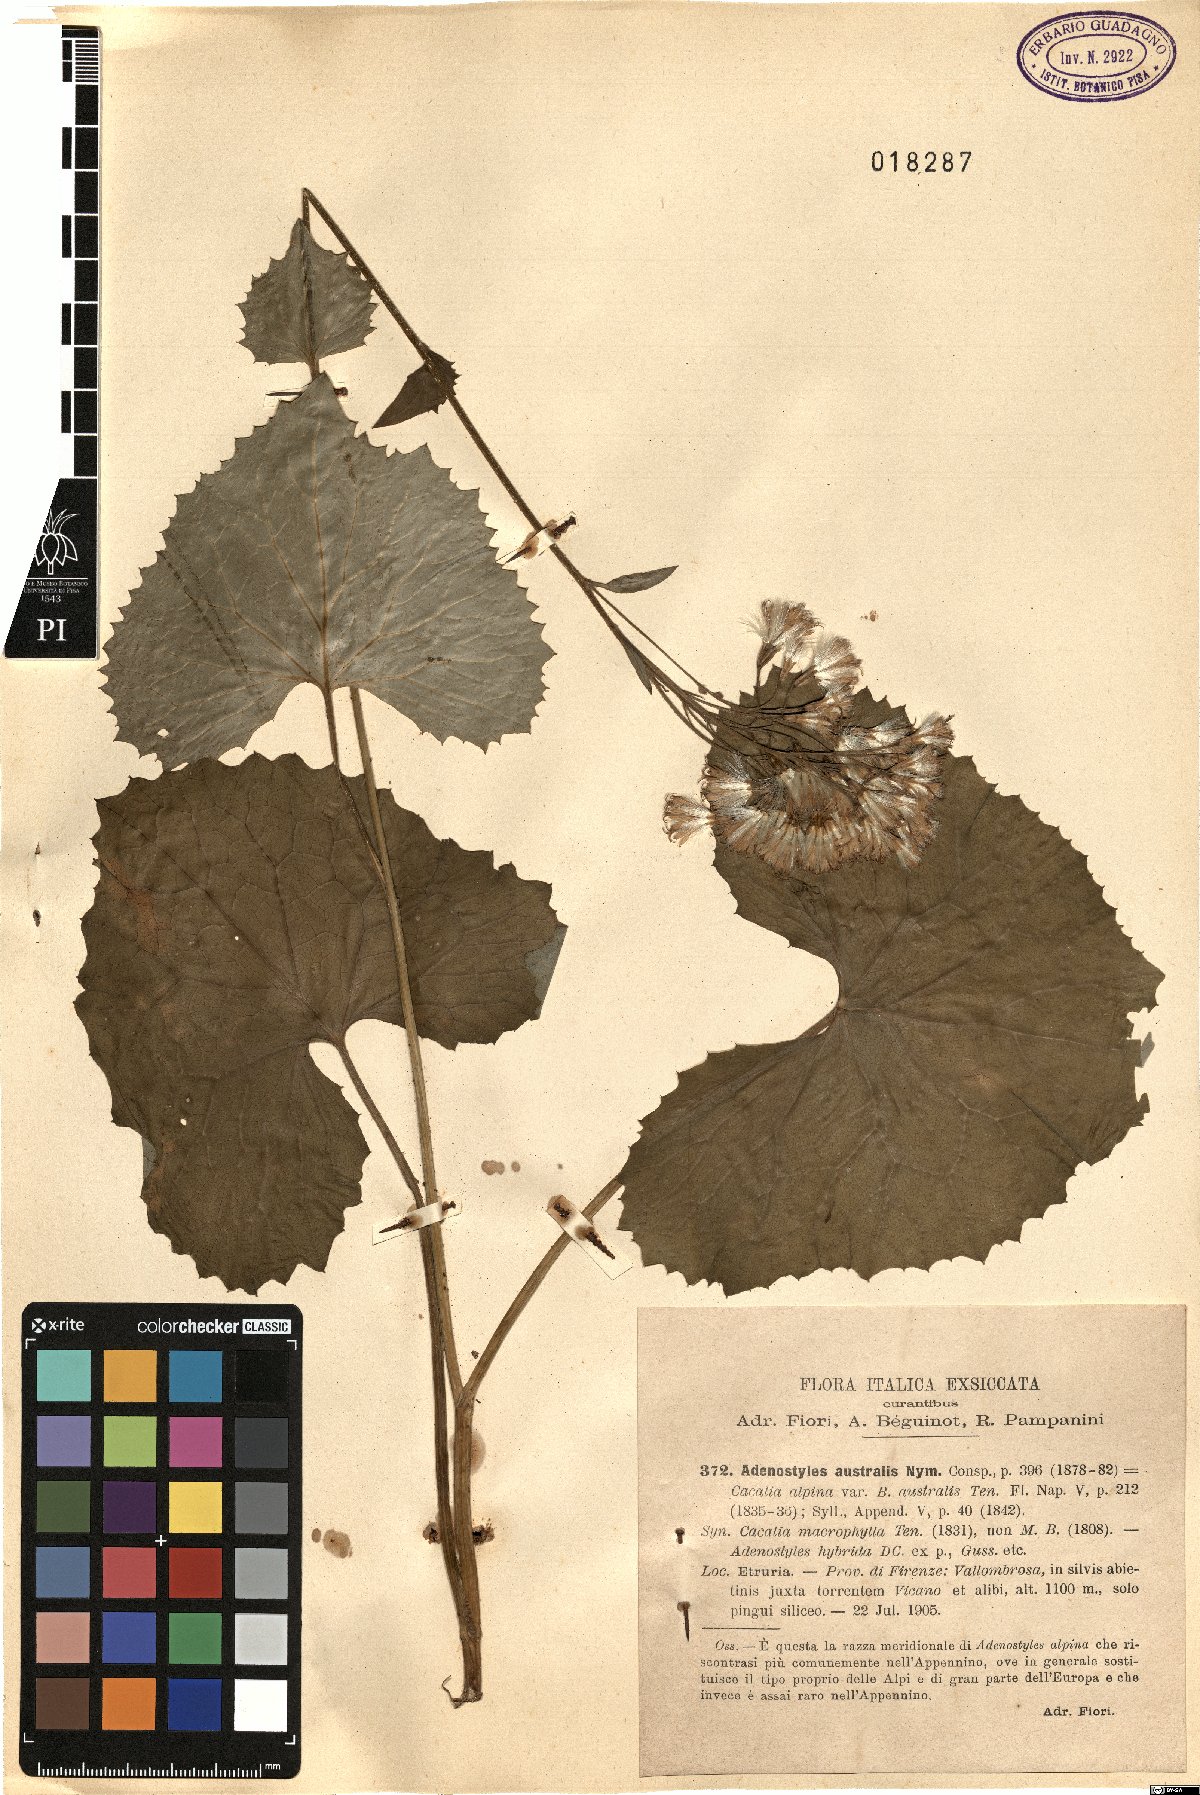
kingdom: Plantae
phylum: Tracheophyta
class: Magnoliopsida
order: Asterales
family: Asteraceae
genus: Adenostyles
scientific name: Adenostyles australis
